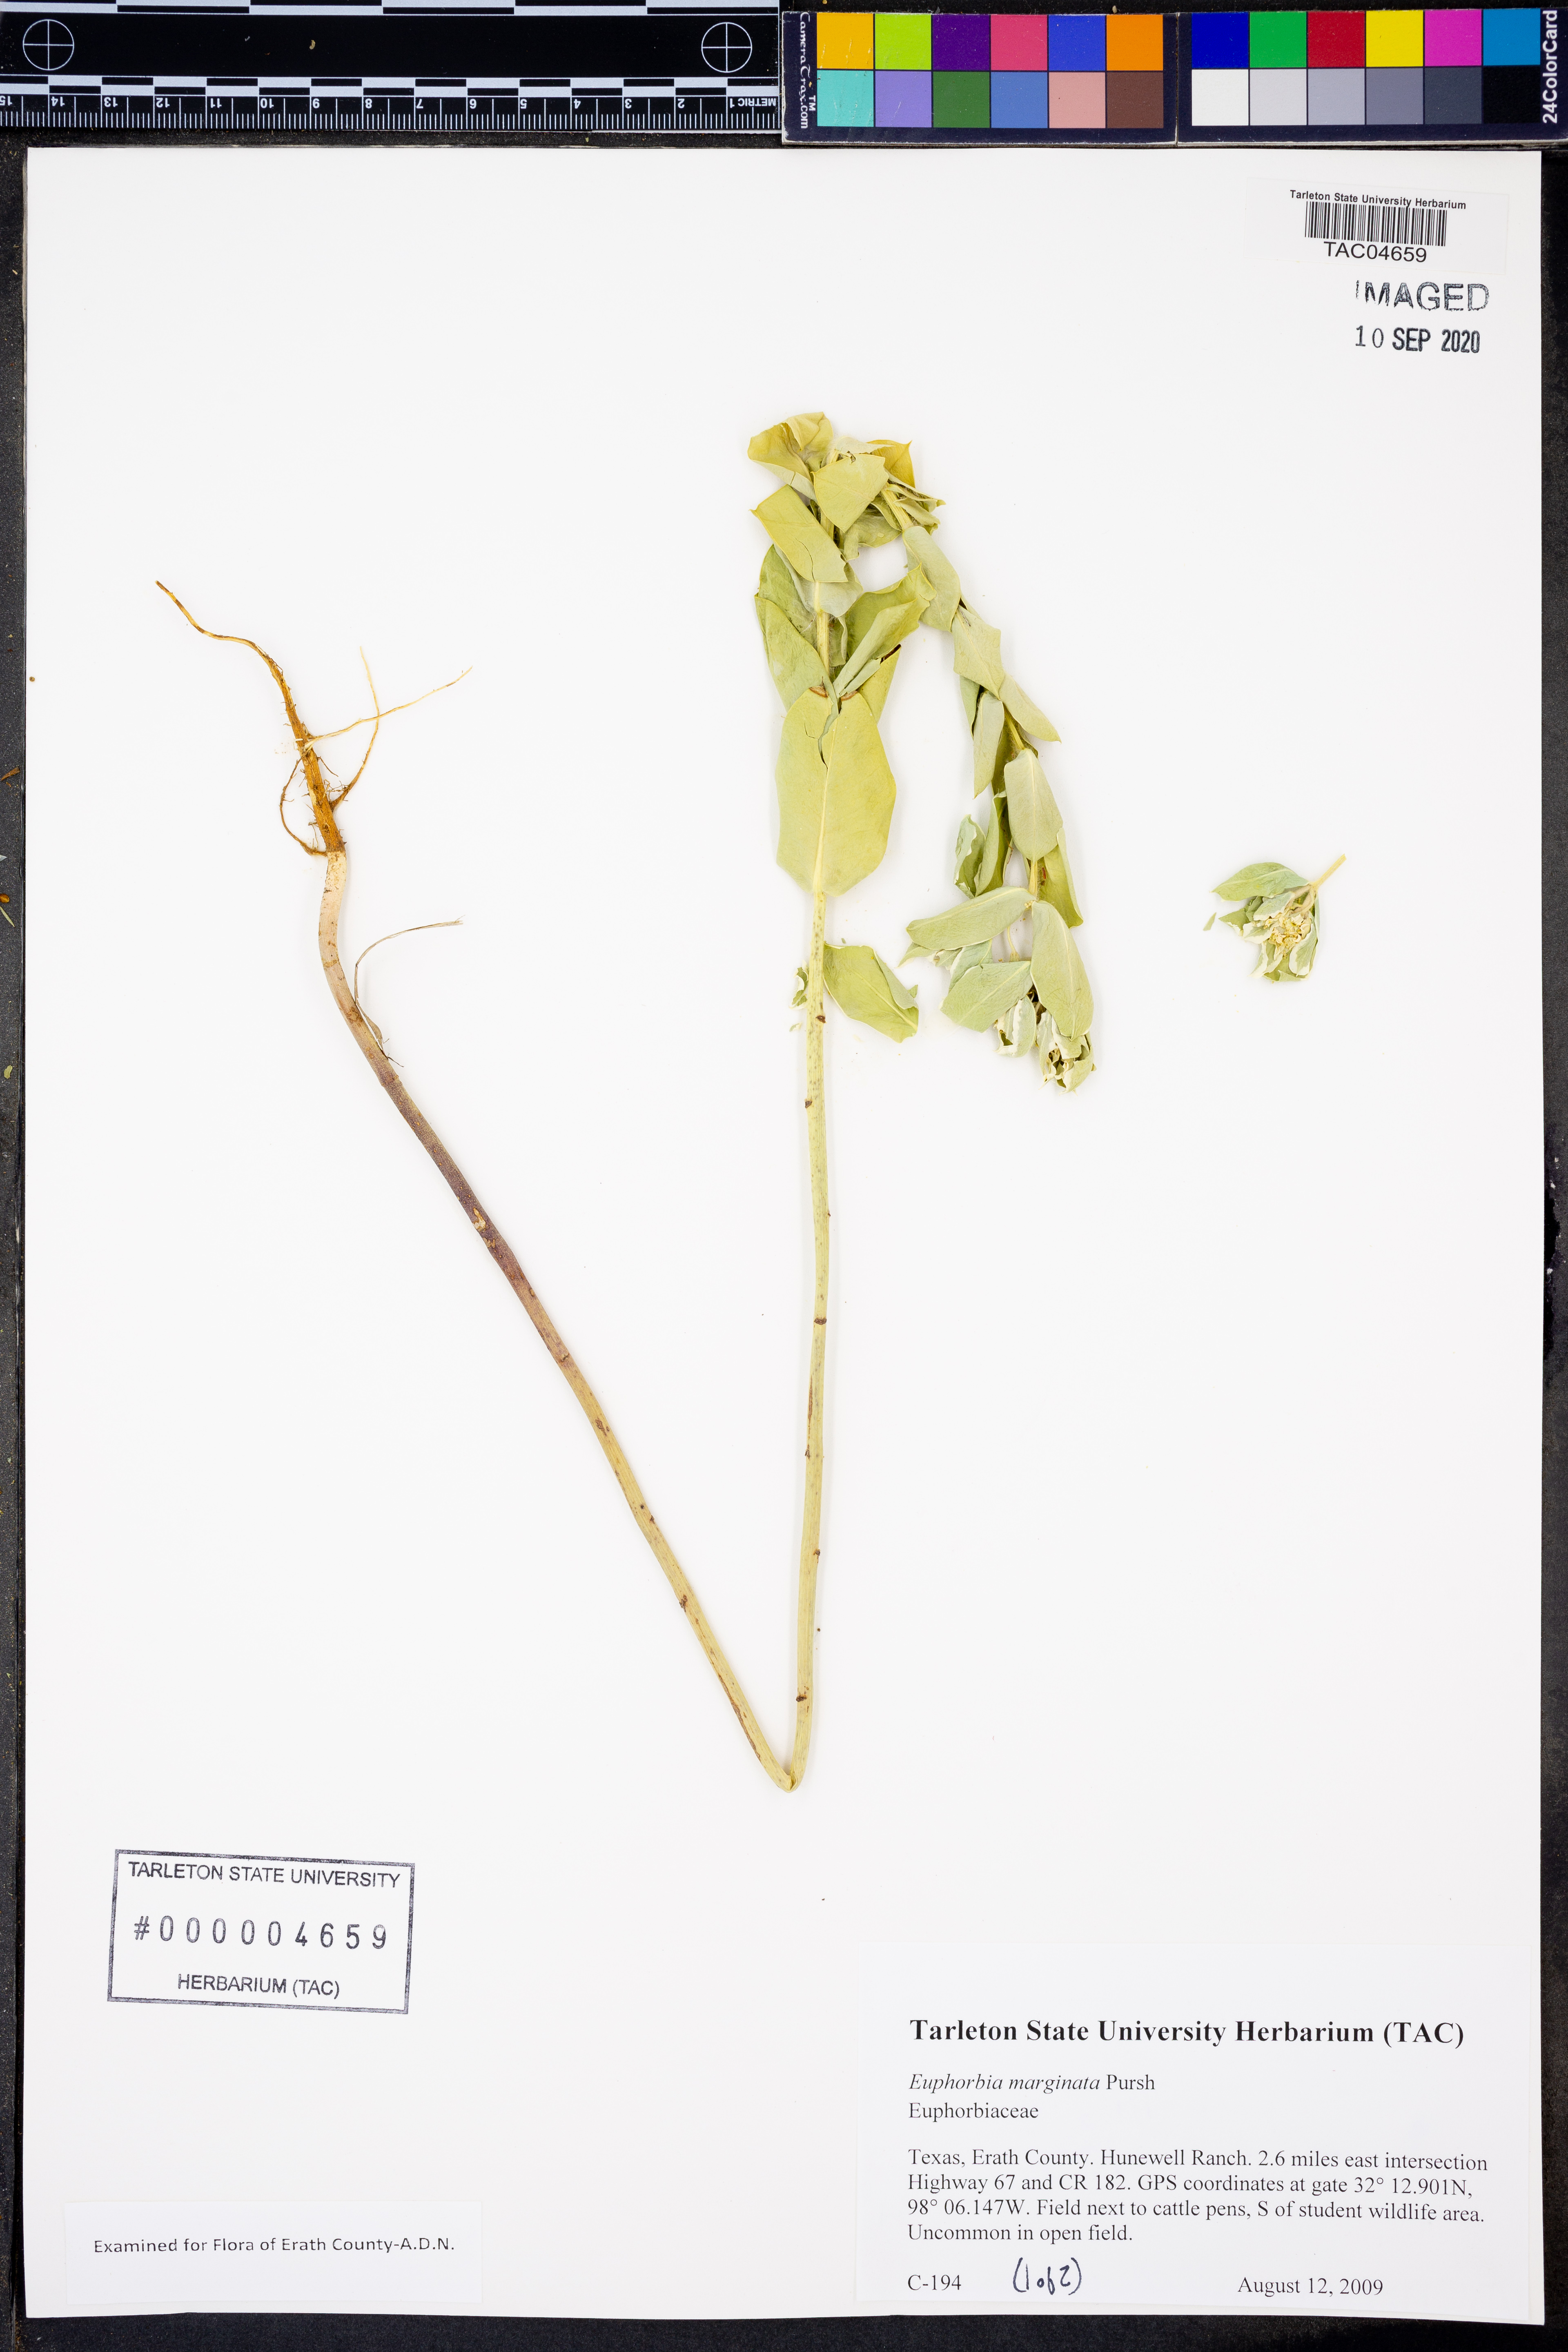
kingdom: Plantae
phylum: Tracheophyta
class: Magnoliopsida
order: Malpighiales
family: Euphorbiaceae
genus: Euphorbia
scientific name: Euphorbia marginata
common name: Ghostweed
